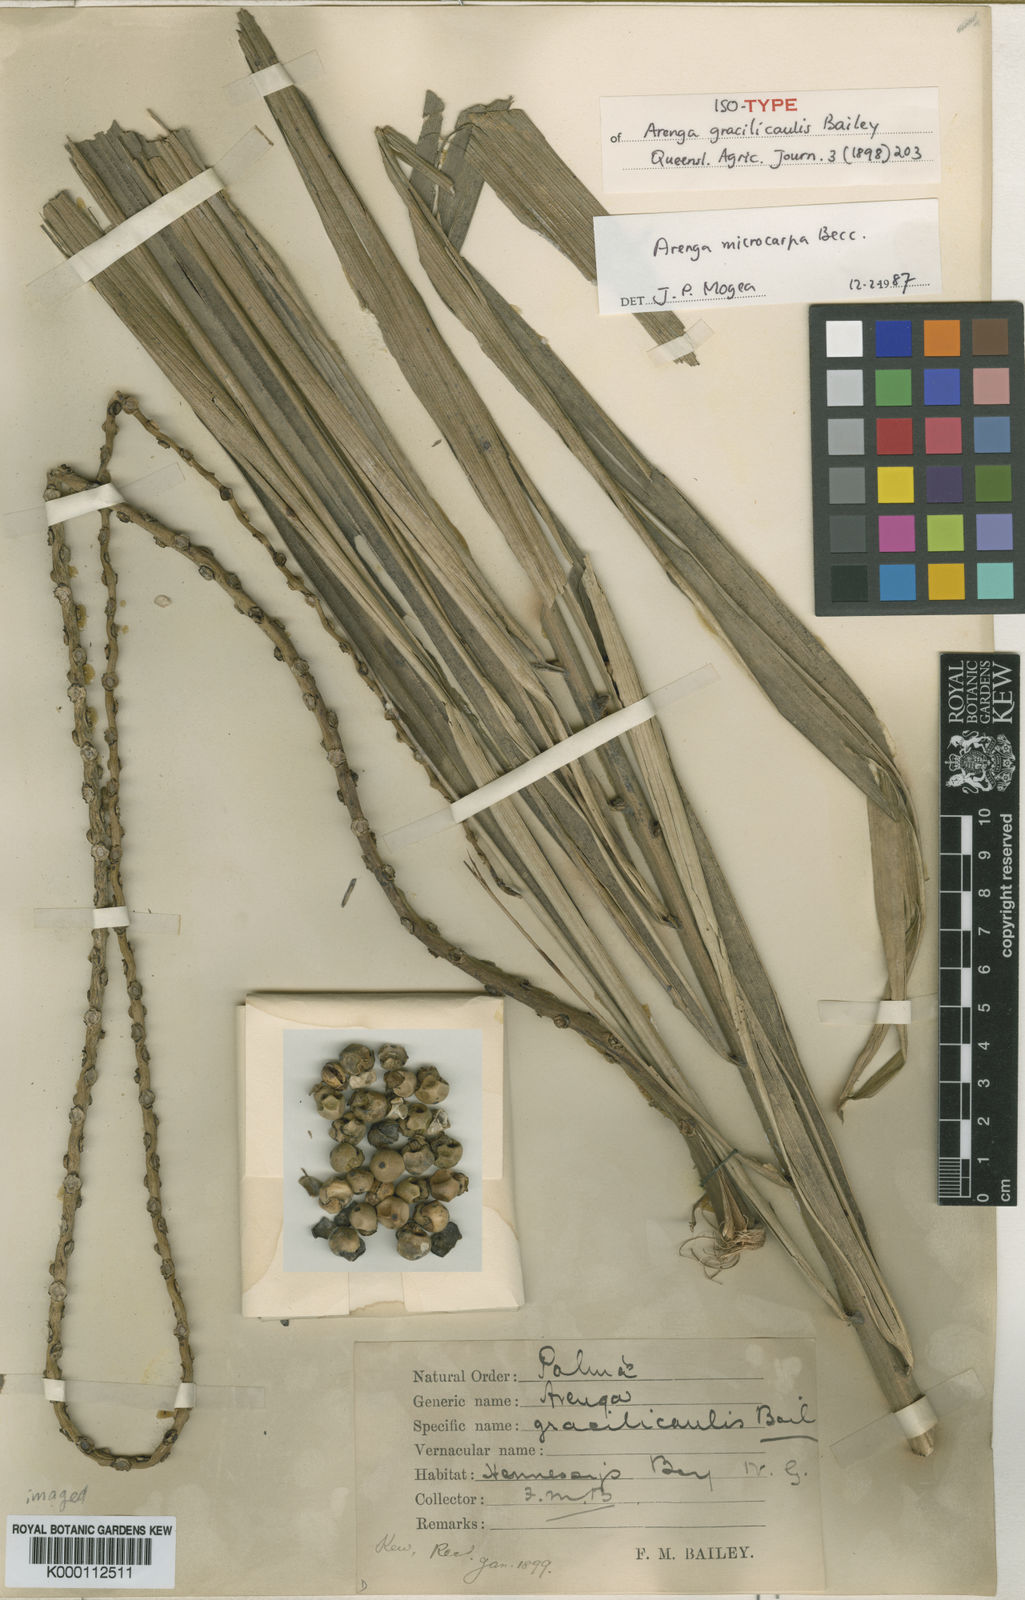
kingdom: Plantae
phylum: Tracheophyta
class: Liliopsida
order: Arecales
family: Arecaceae
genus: Arenga
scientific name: Arenga microcarpa
